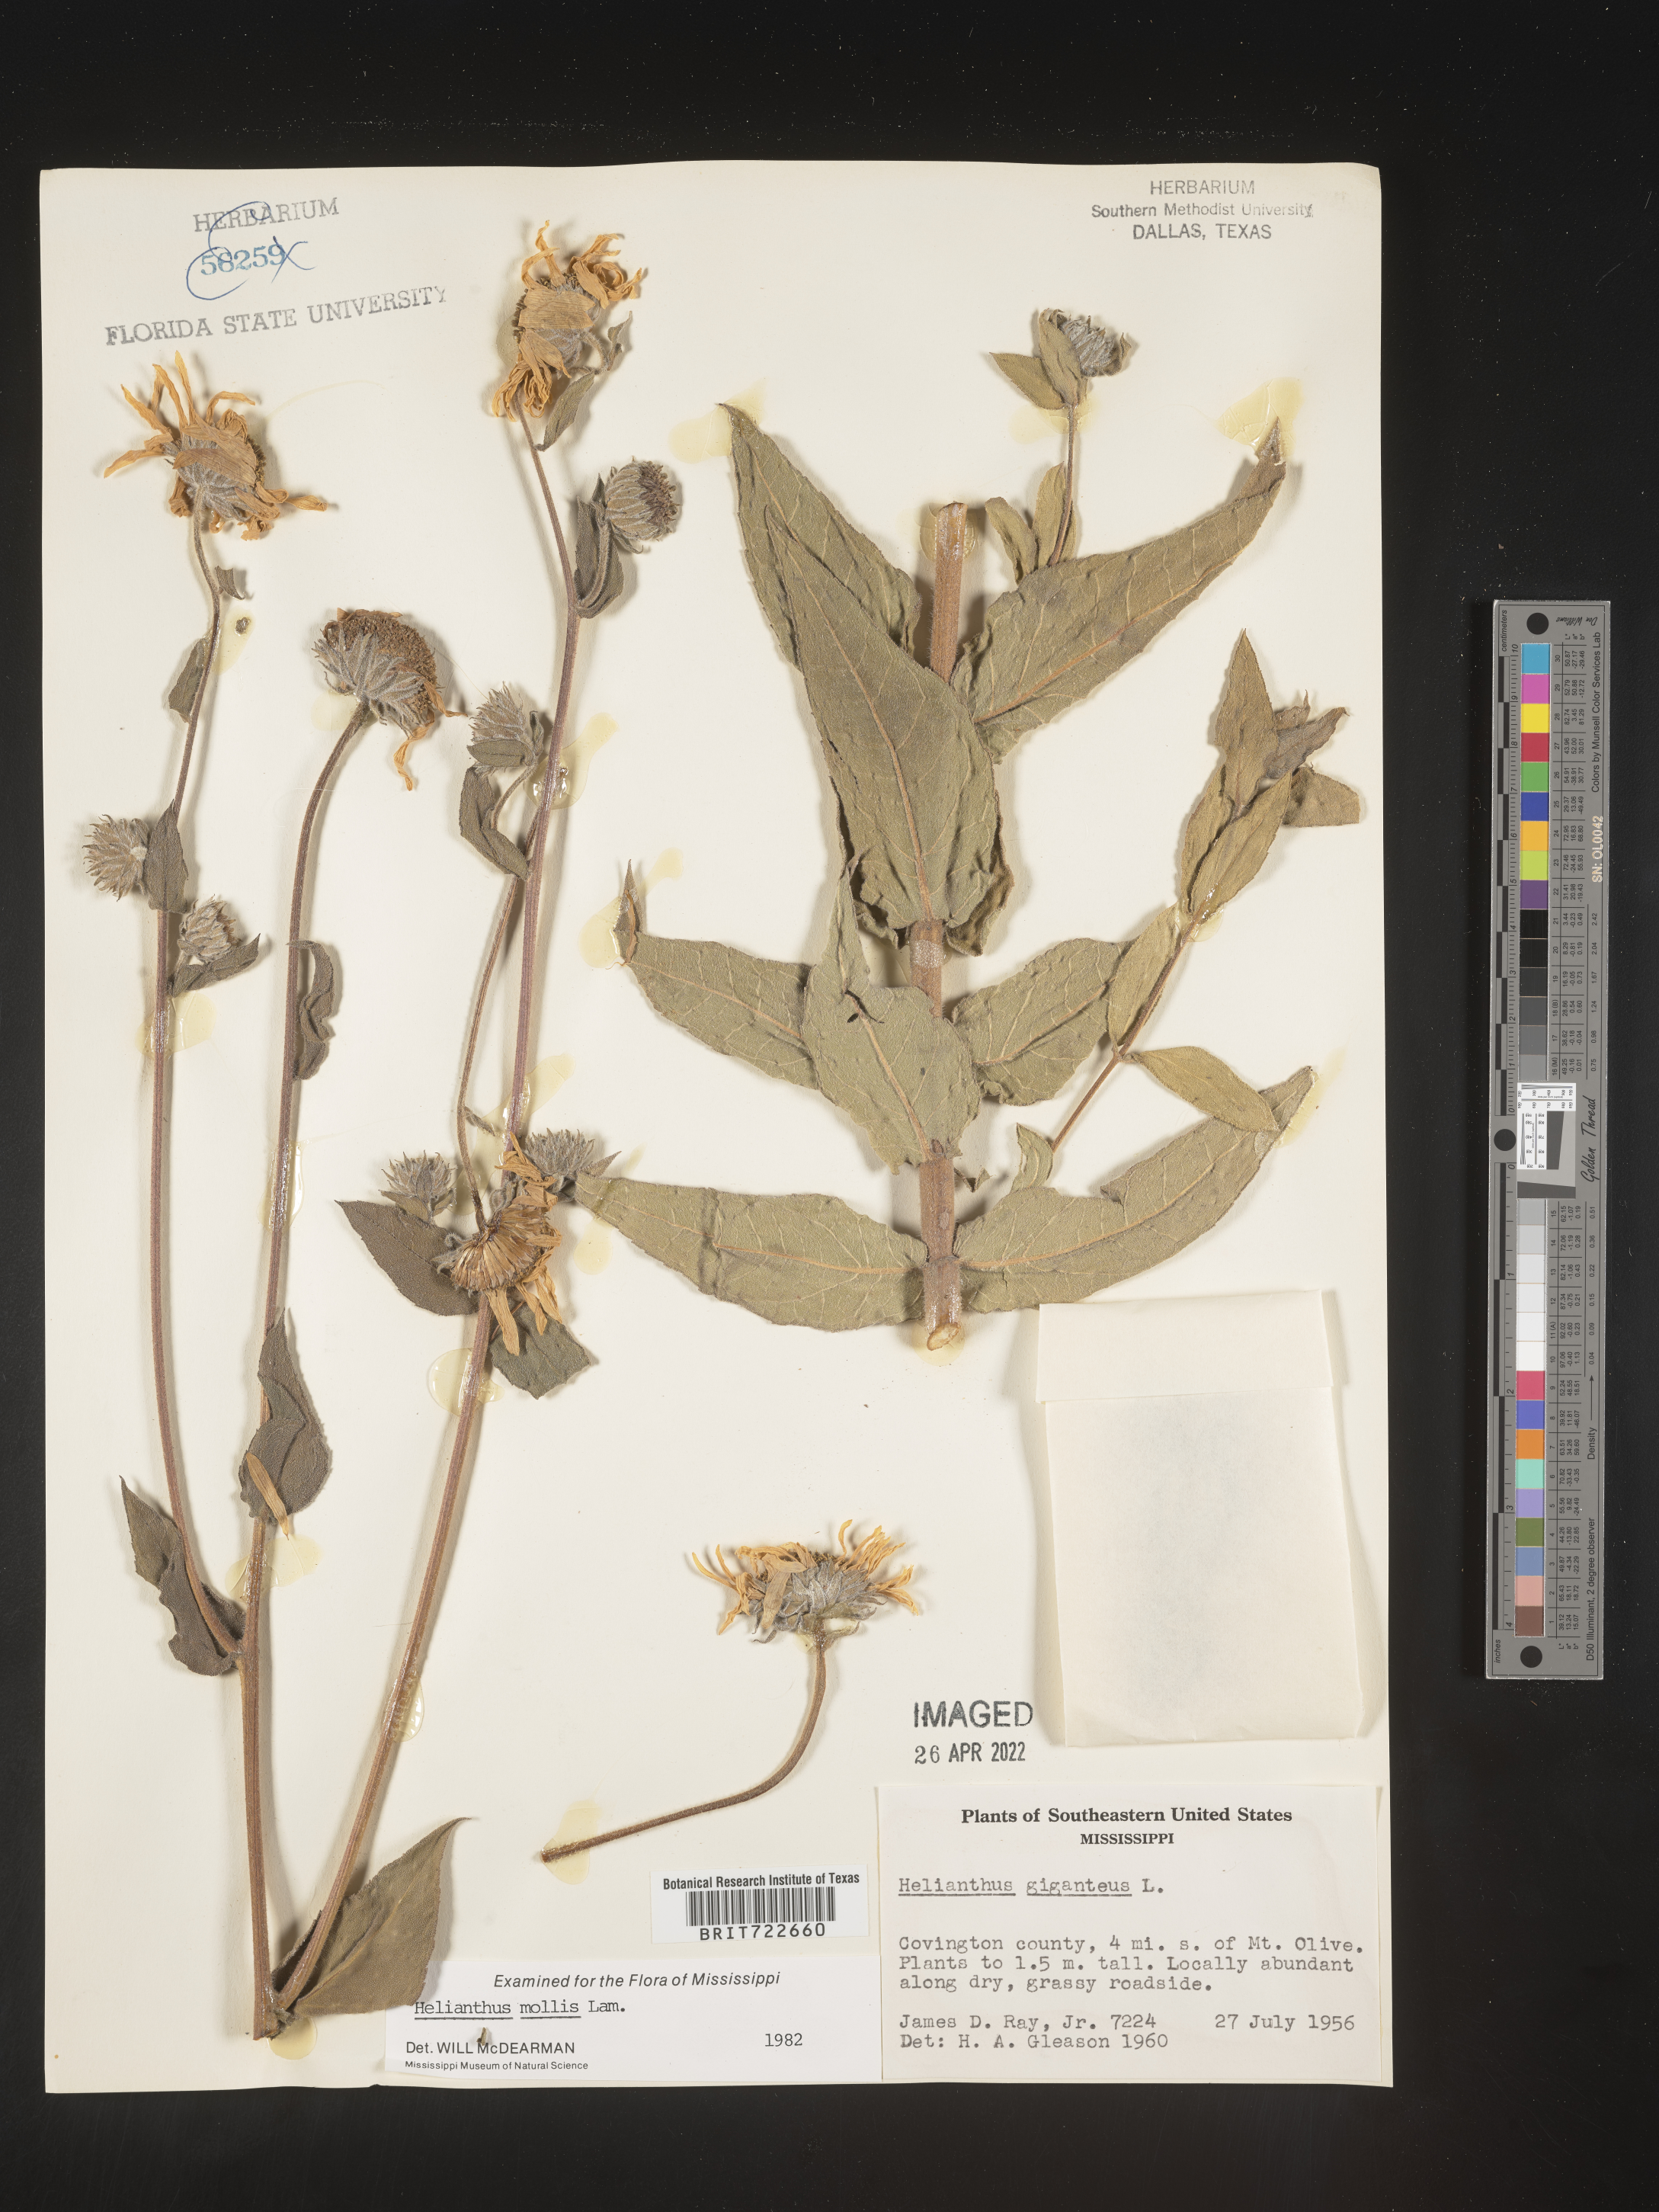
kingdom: Plantae
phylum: Tracheophyta
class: Magnoliopsida
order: Asterales
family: Asteraceae
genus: Helianthus
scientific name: Helianthus mollis
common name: Ashy sunflower
